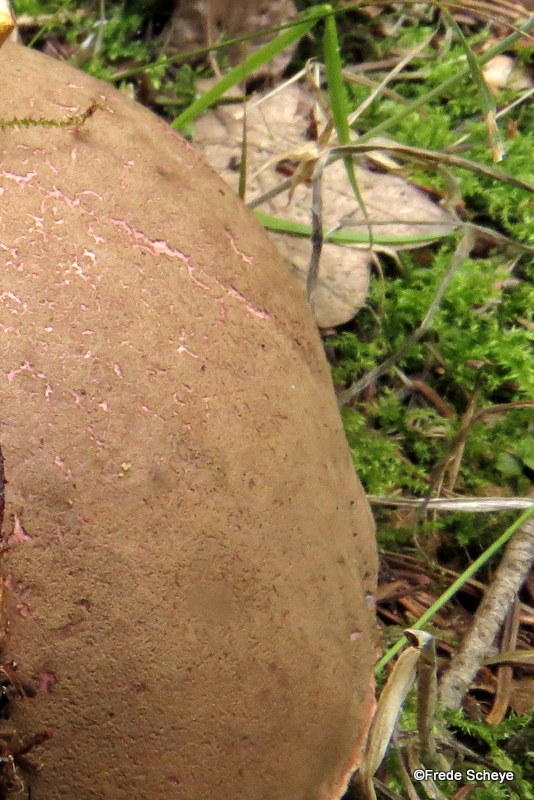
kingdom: Fungi
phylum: Basidiomycota
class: Agaricomycetes
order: Boletales
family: Boletaceae
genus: Xerocomellus
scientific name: Xerocomellus chrysenteron
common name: rødsprukken rørhat
